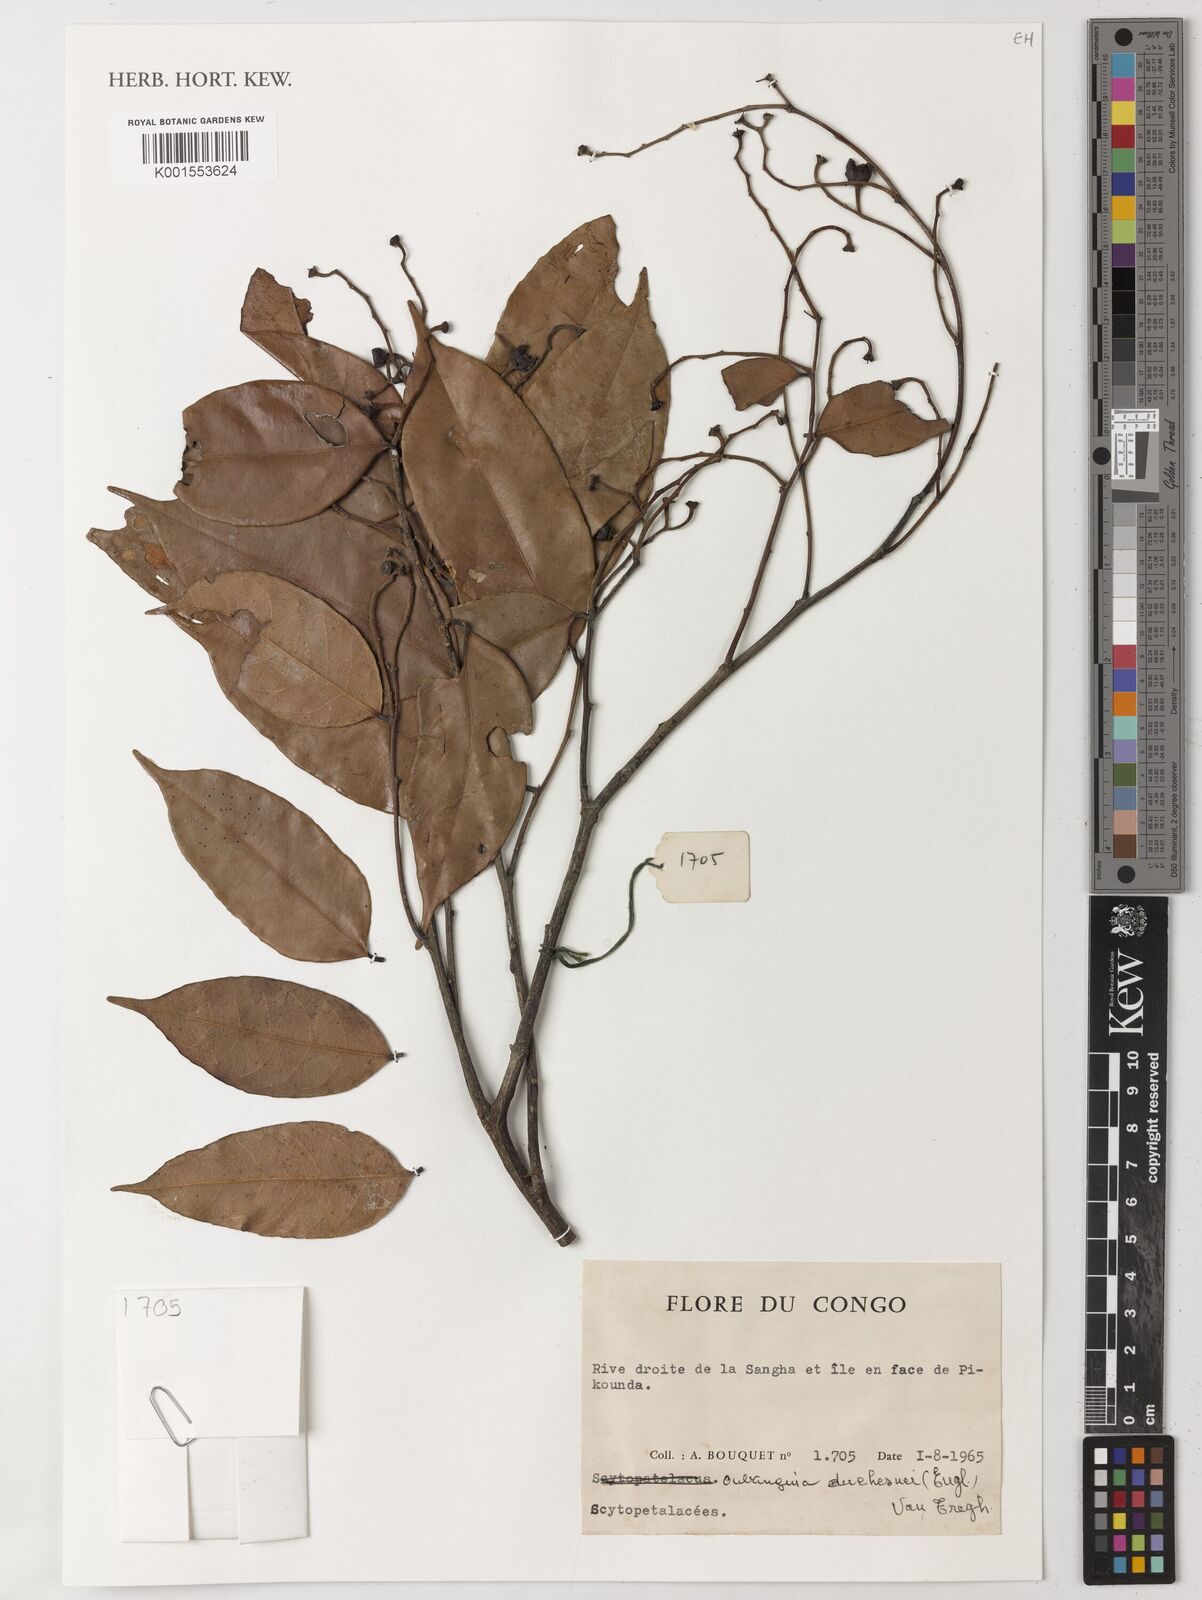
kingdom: Plantae
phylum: Tracheophyta
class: Magnoliopsida
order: Ericales
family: Lecythidaceae
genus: Oubanguia
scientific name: Oubanguia africana
